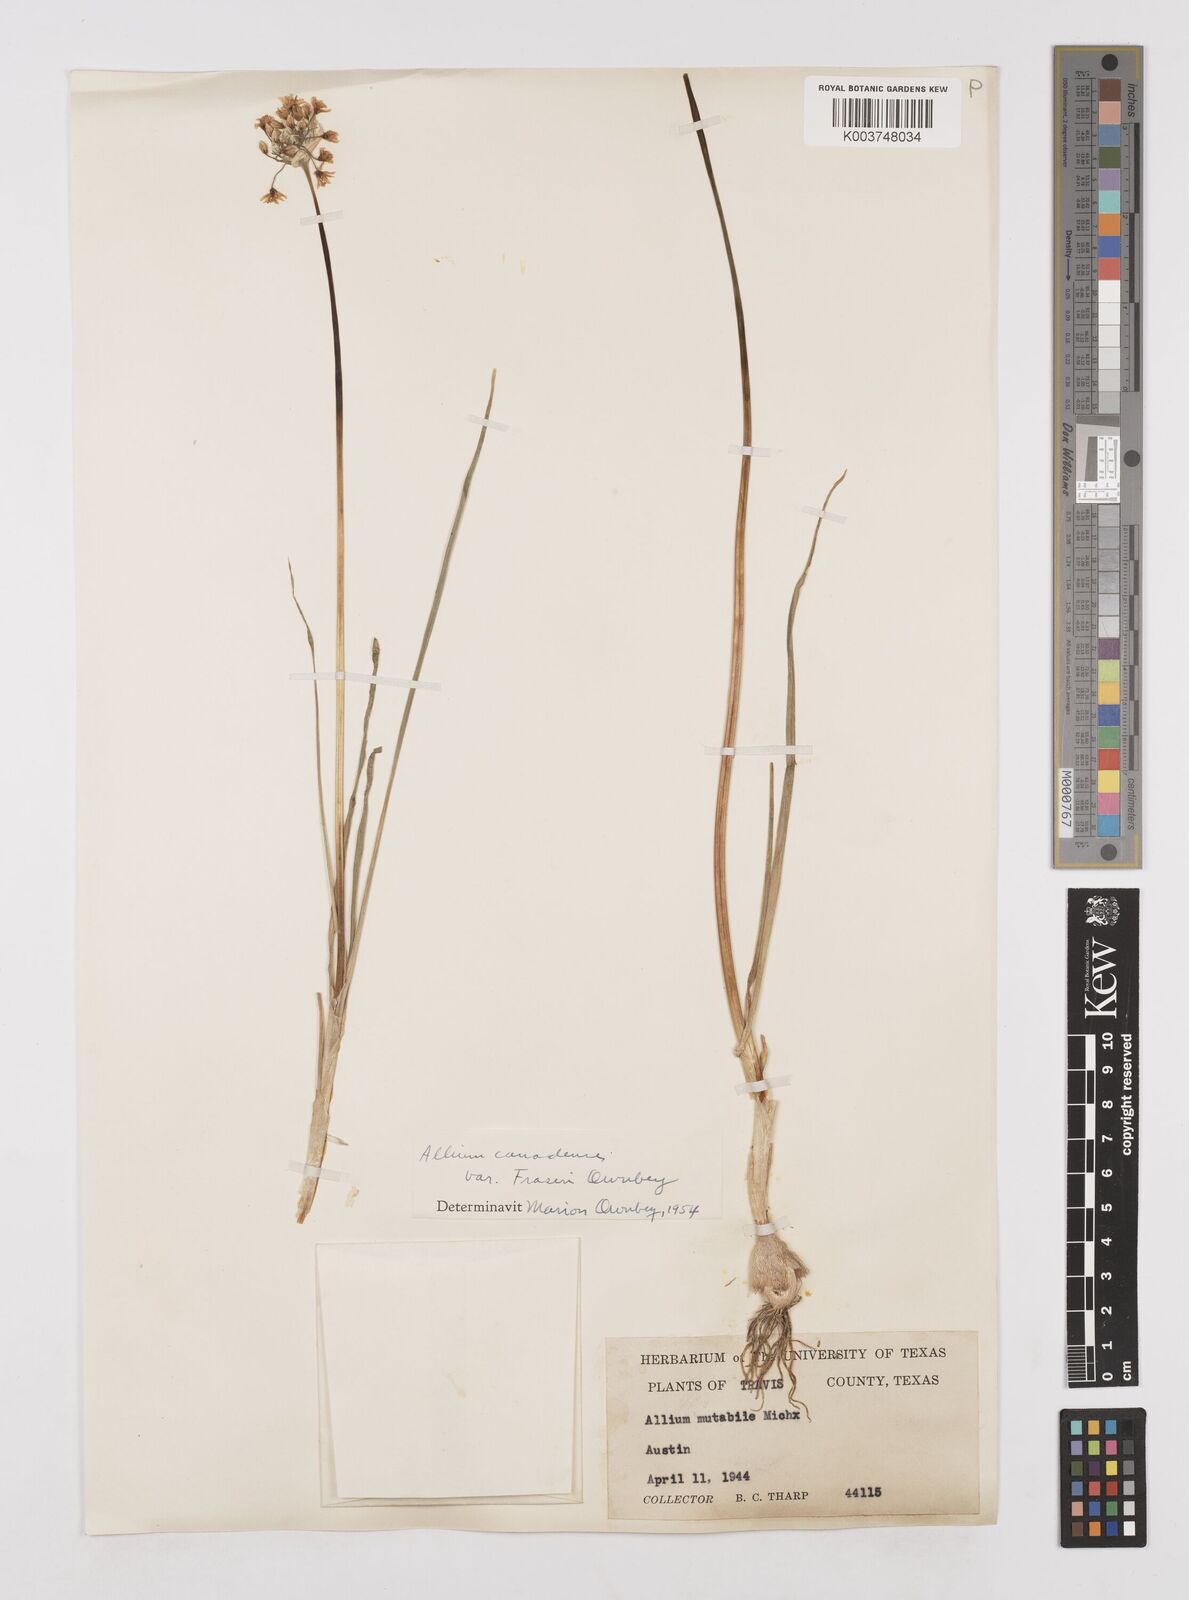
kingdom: Plantae
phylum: Tracheophyta
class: Liliopsida
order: Asparagales
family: Amaryllidaceae
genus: Allium
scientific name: Allium fraseri
